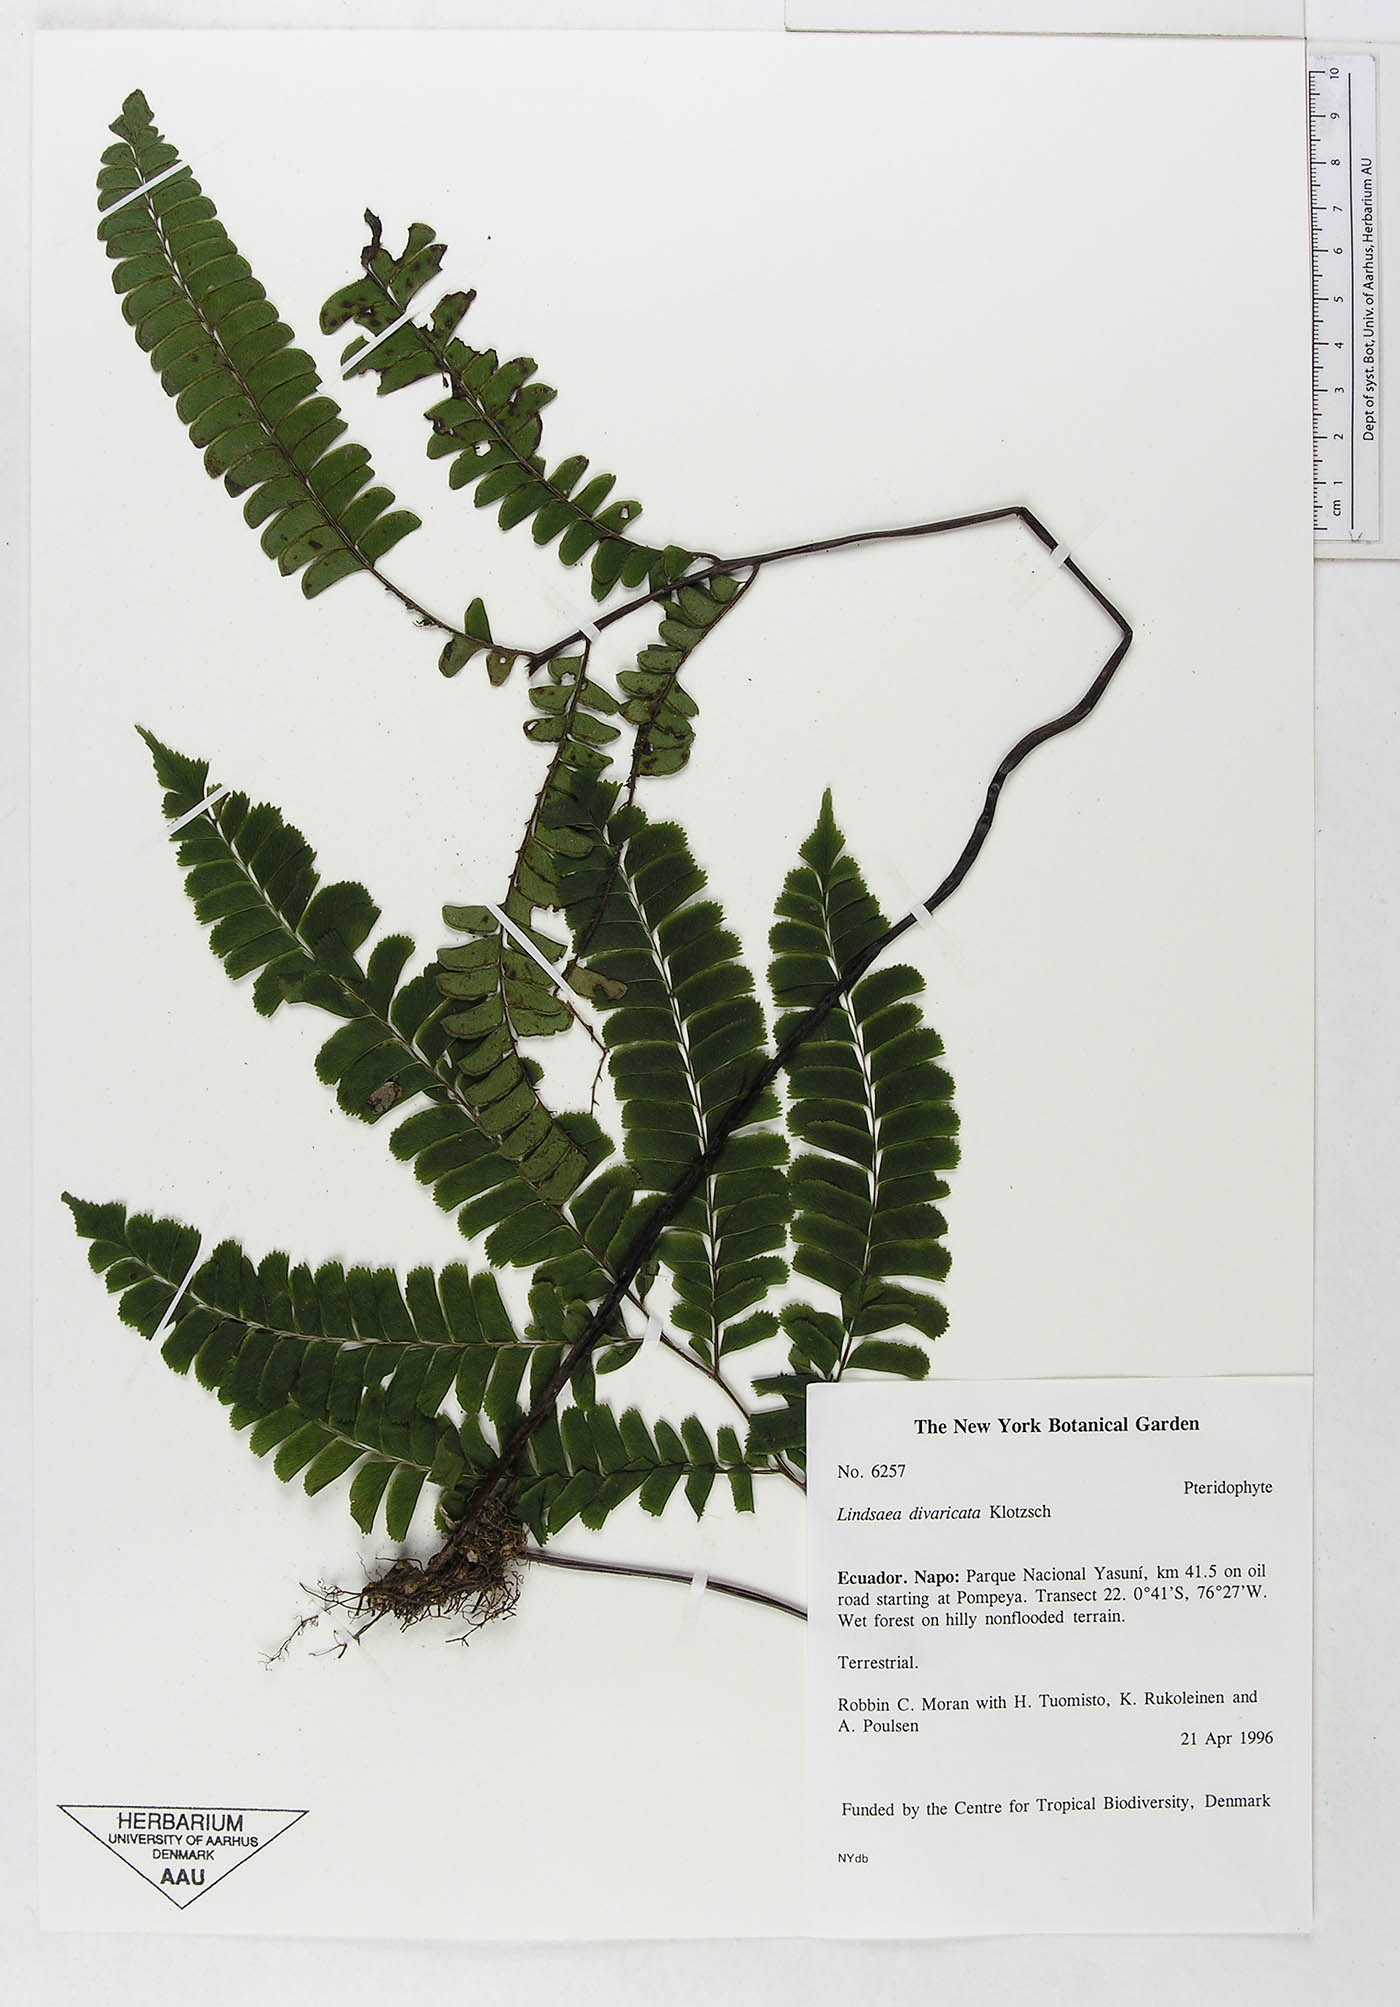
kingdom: Plantae
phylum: Tracheophyta
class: Polypodiopsida
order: Polypodiales
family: Lindsaeaceae
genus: Lindsaea
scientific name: Lindsaea divaricata
